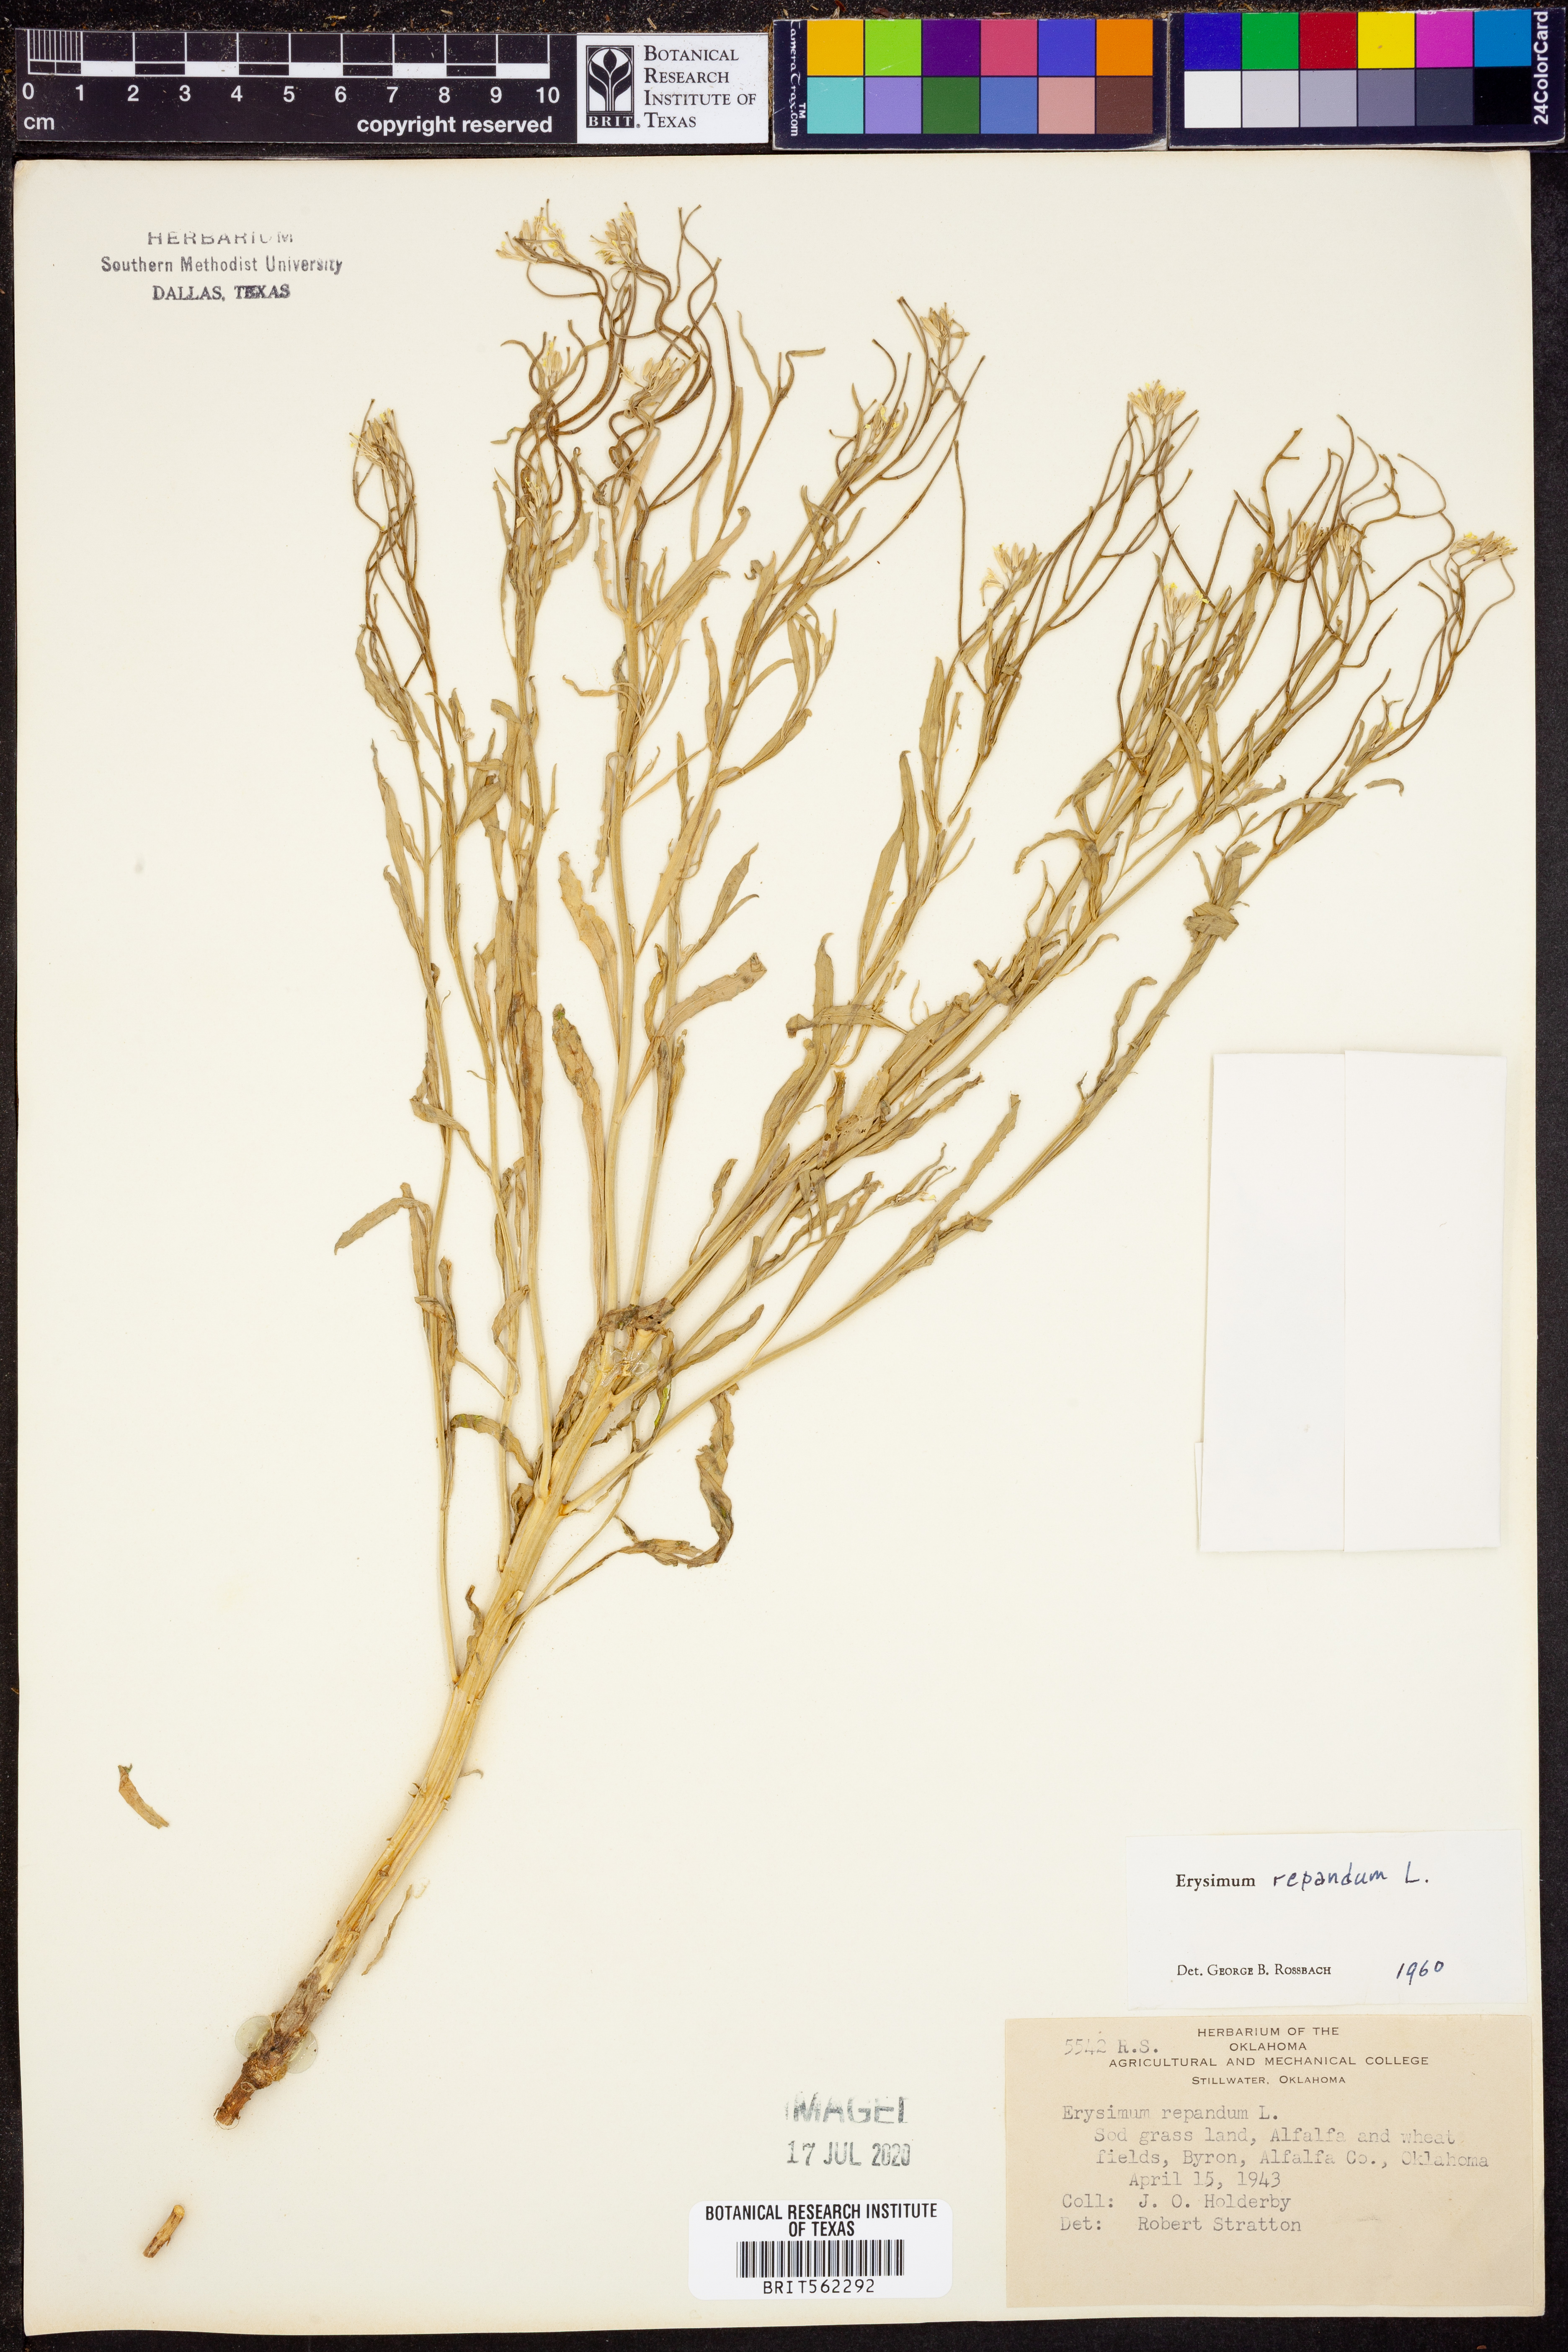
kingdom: Plantae
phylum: Tracheophyta
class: Magnoliopsida
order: Brassicales
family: Brassicaceae
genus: Erysimum
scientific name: Erysimum repandum
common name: Spreading wallflower
